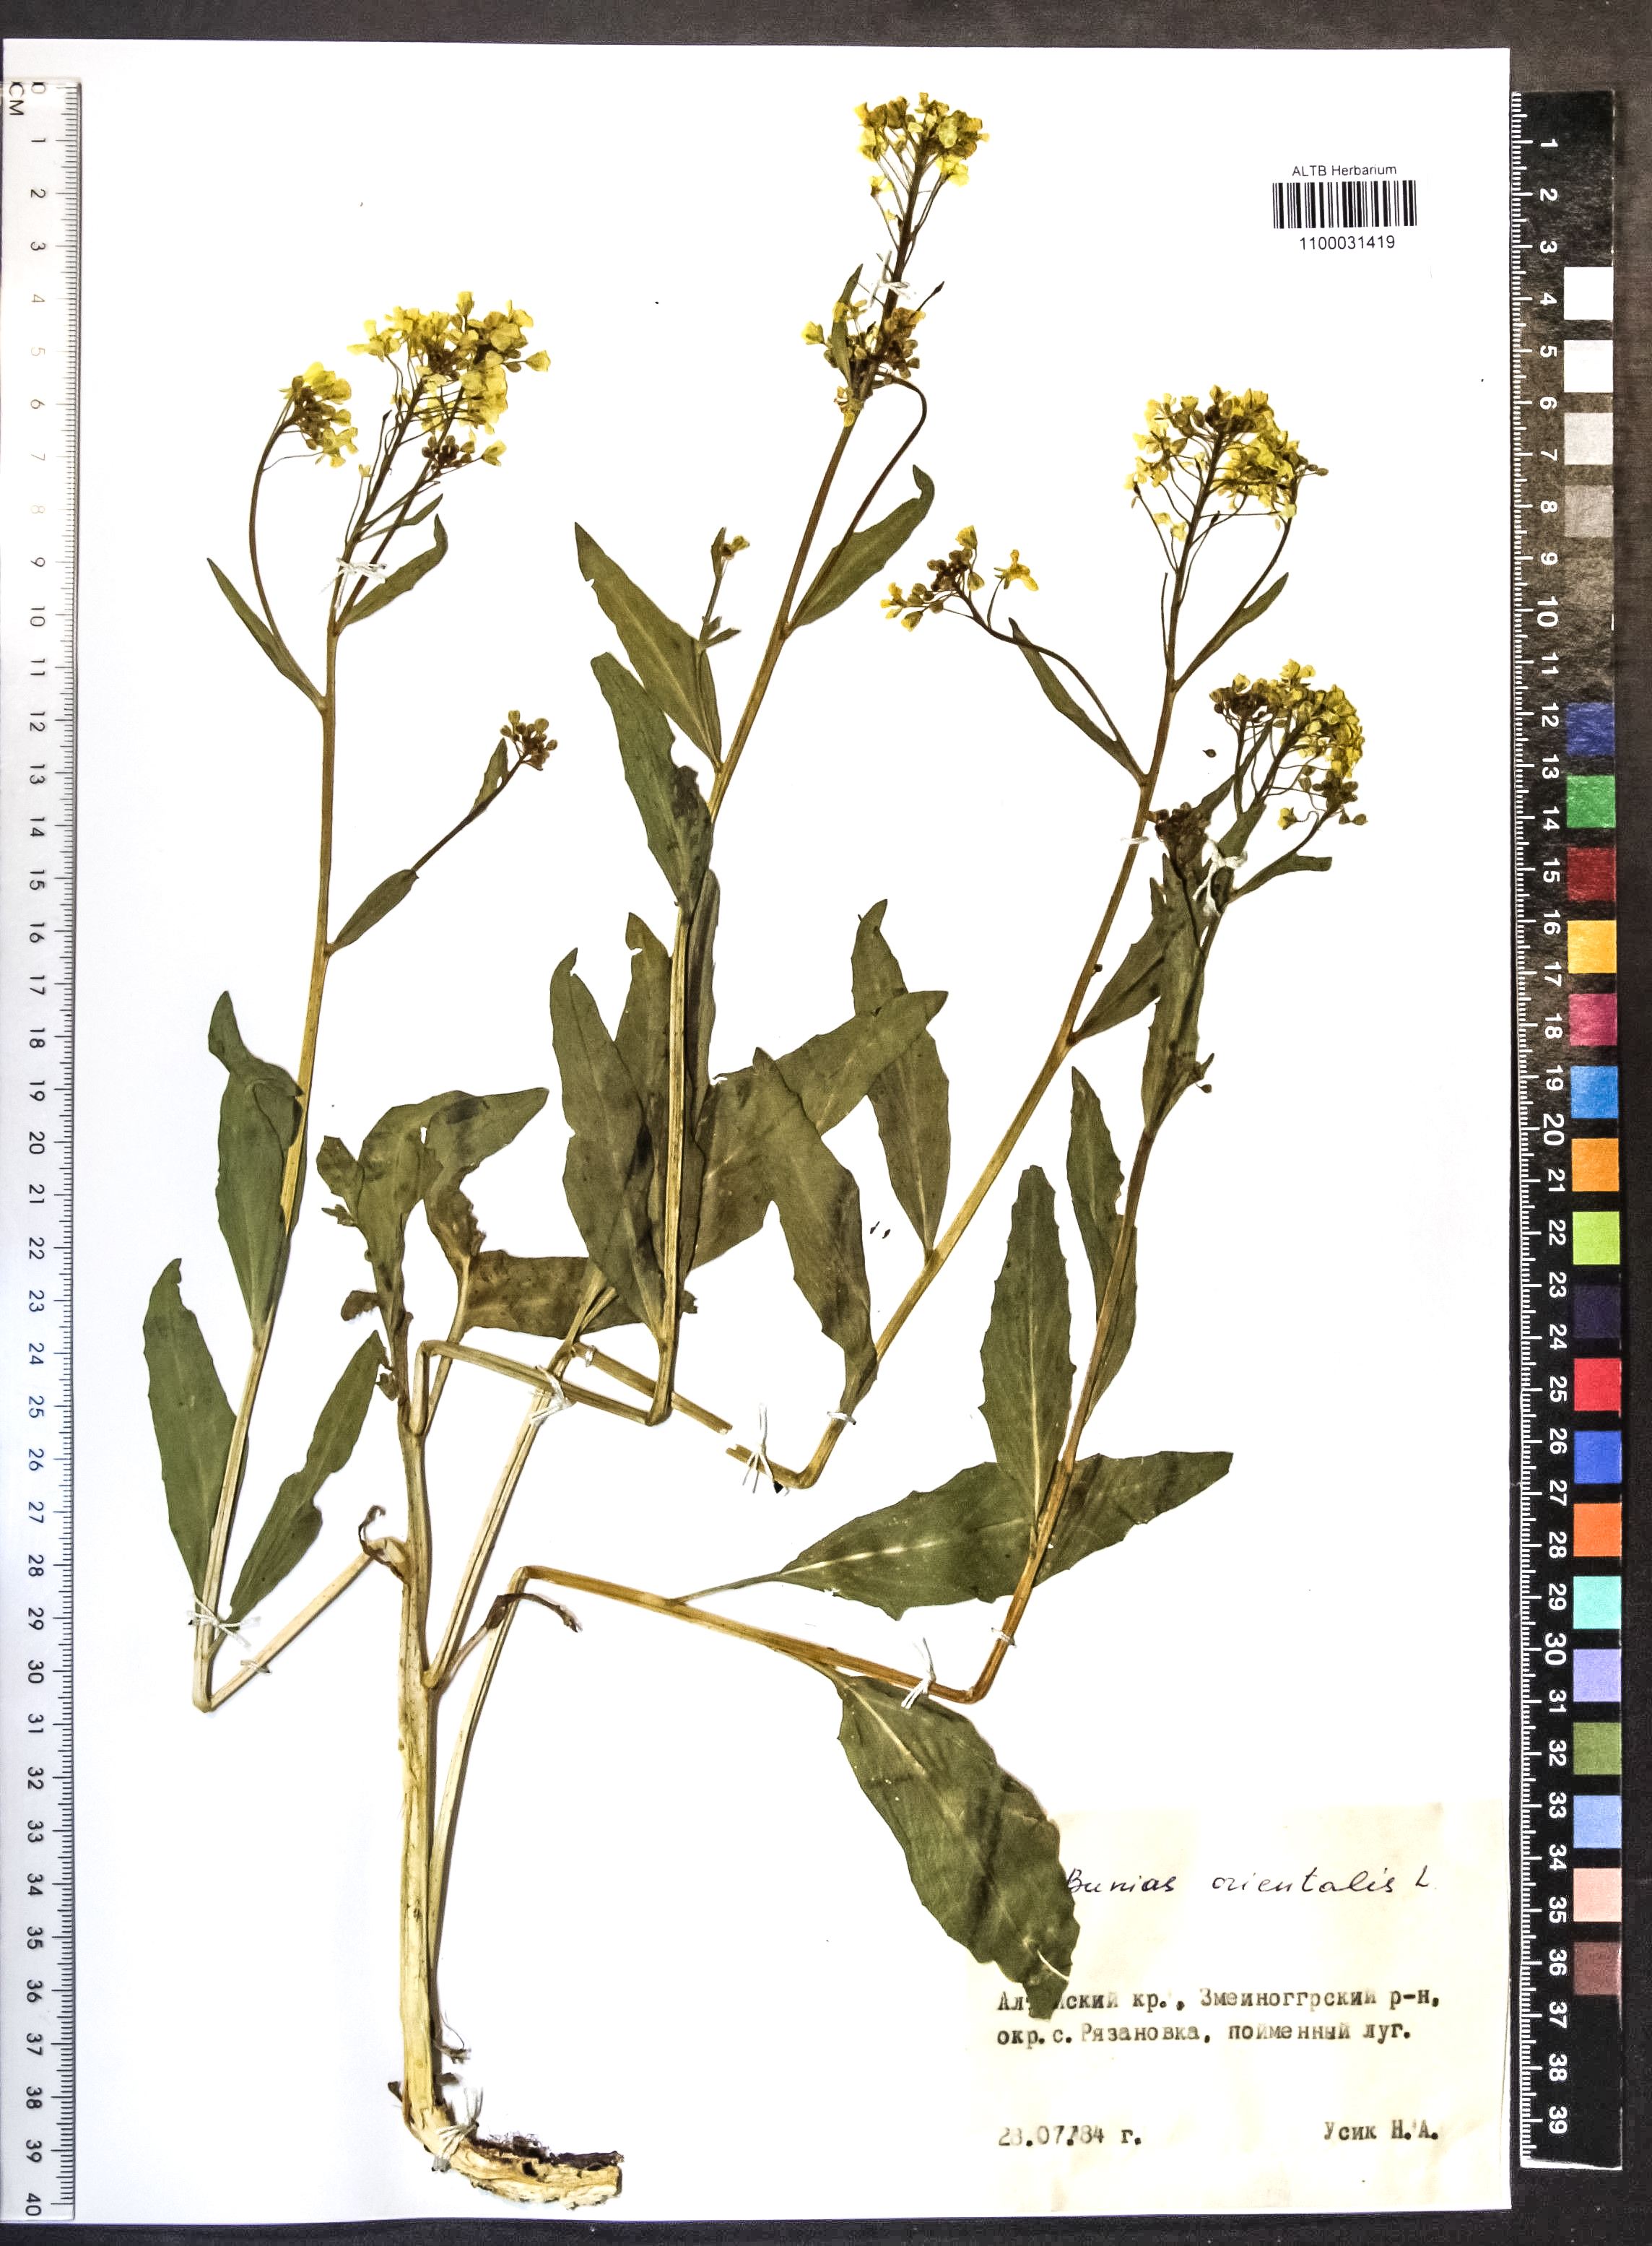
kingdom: Plantae
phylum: Tracheophyta
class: Magnoliopsida
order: Brassicales
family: Brassicaceae
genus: Bunias
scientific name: Bunias orientalis
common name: Warty-cabbage
